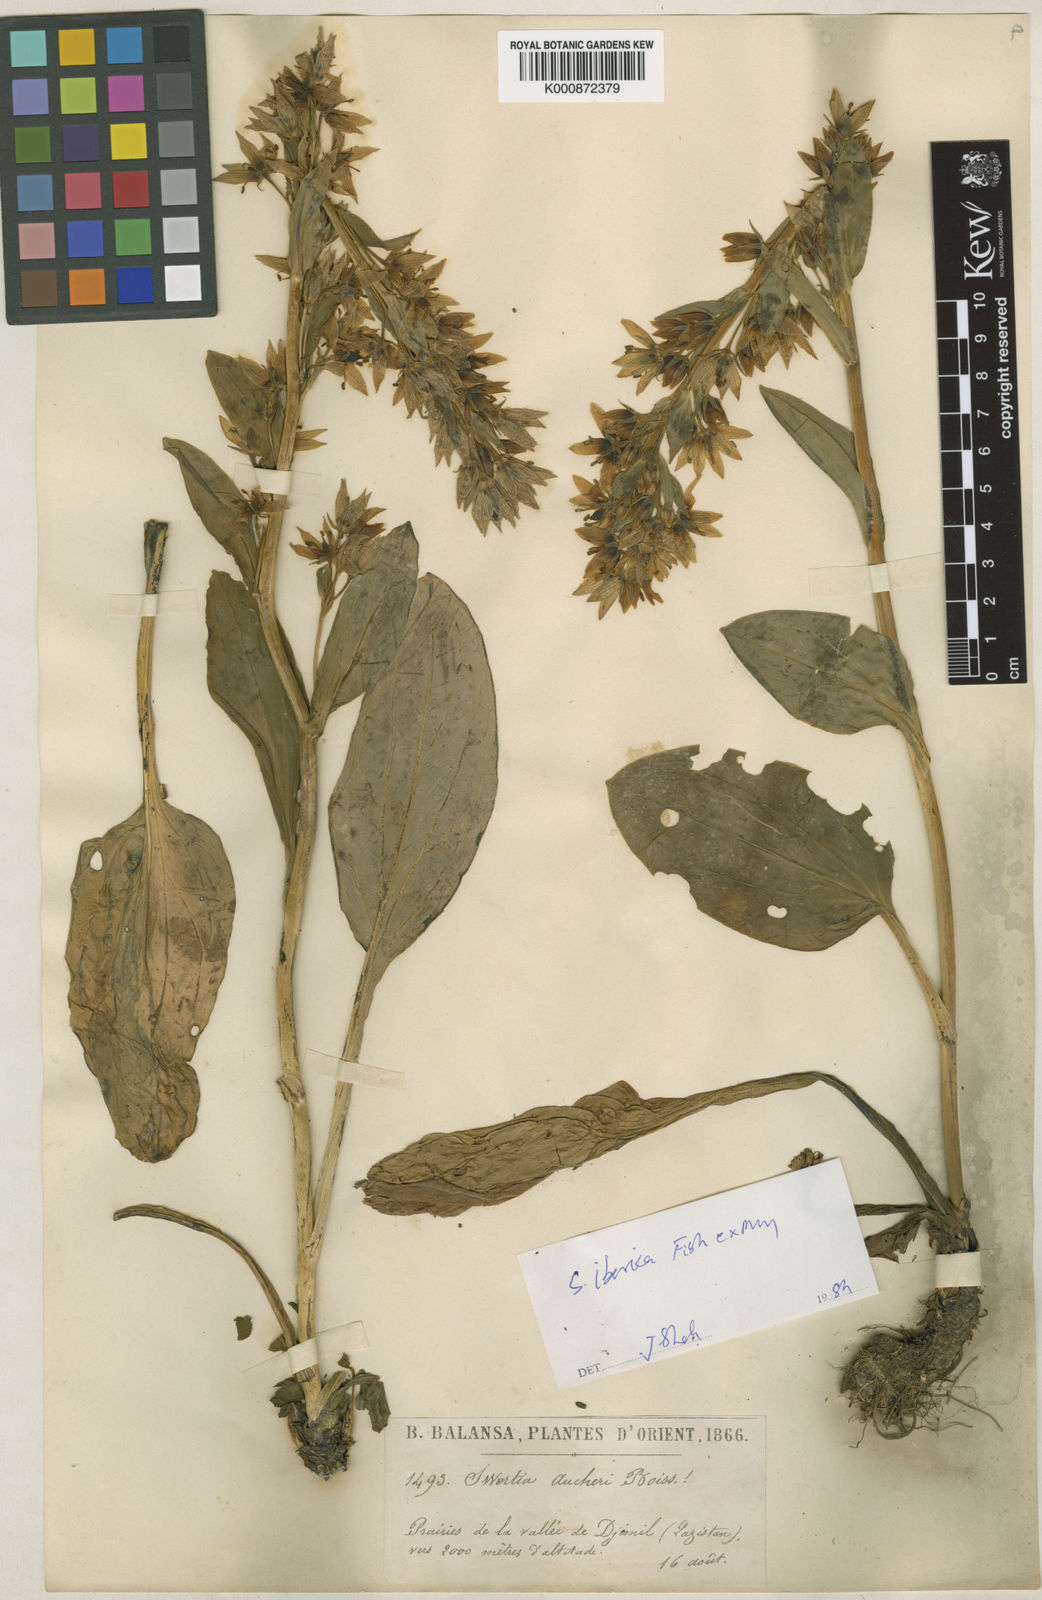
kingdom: Plantae
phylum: Tracheophyta
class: Magnoliopsida
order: Gentianales
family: Gentianaceae
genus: Swertia
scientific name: Swertia
